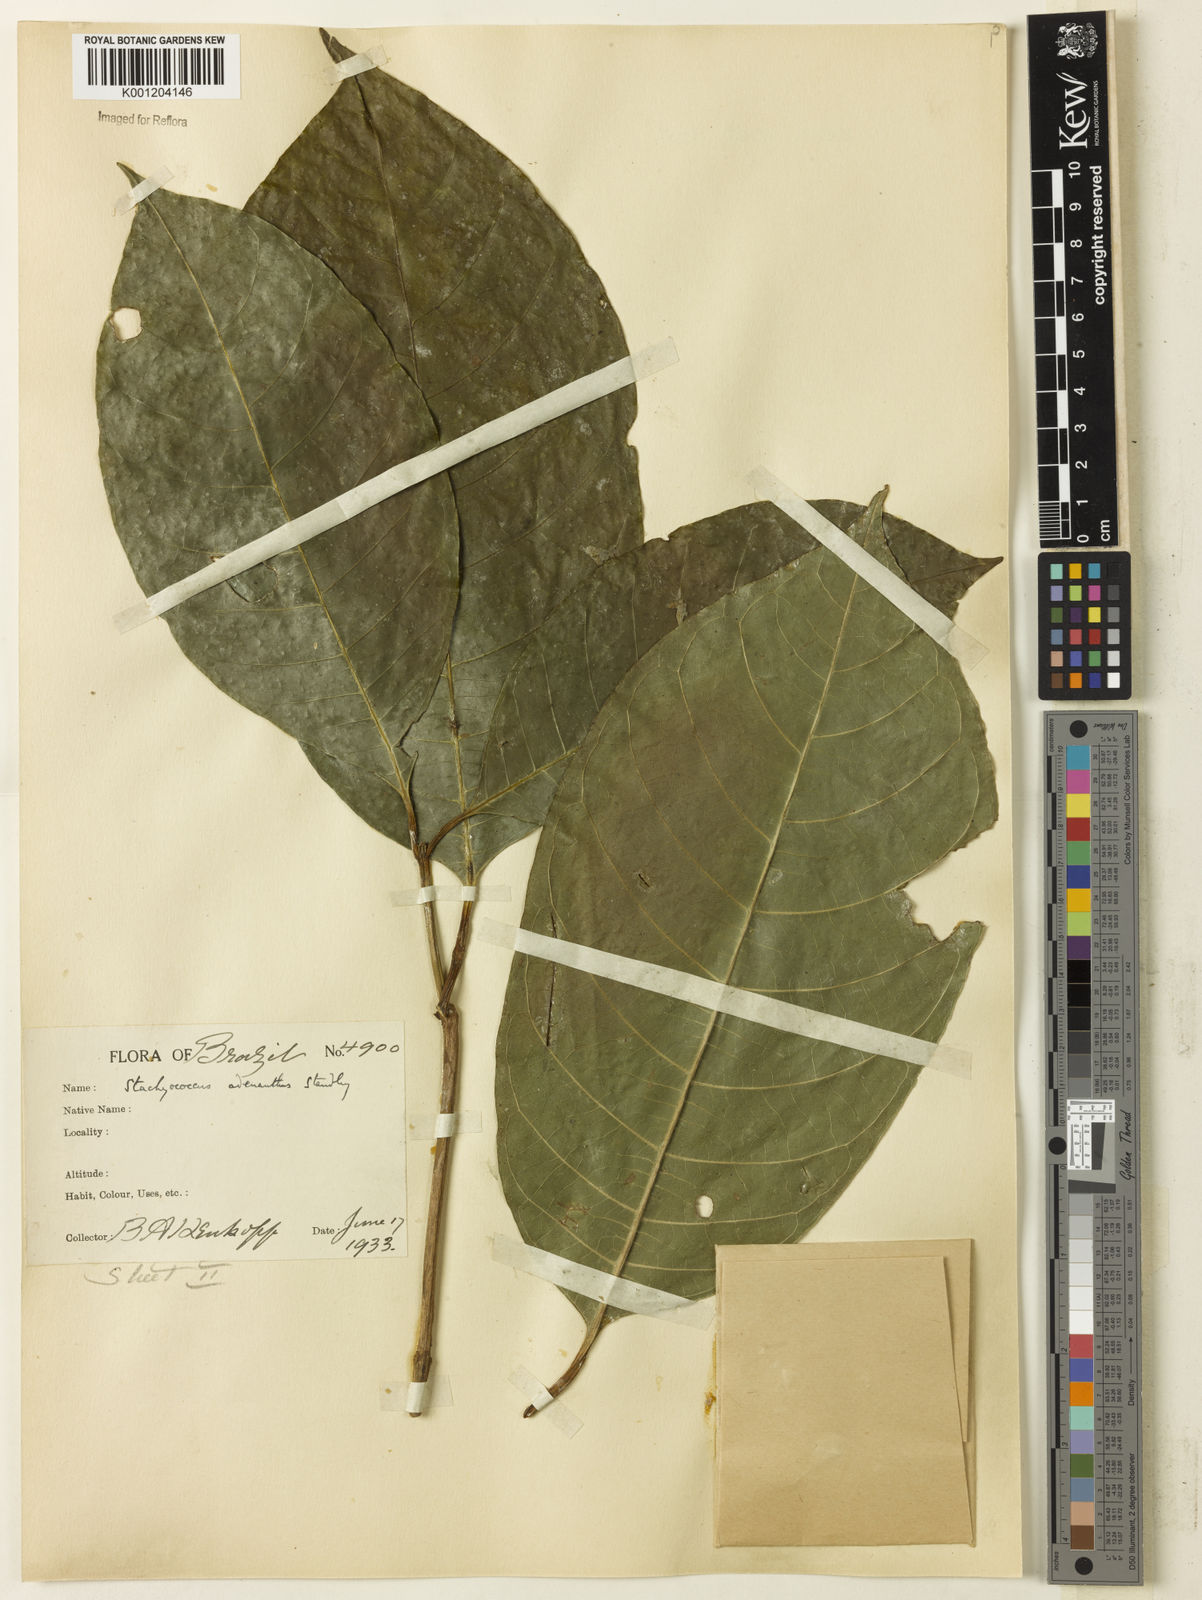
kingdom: Plantae
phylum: Tracheophyta
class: Magnoliopsida
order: Gentianales
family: Rubiaceae
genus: Carapichea
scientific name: Carapichea adinantha
